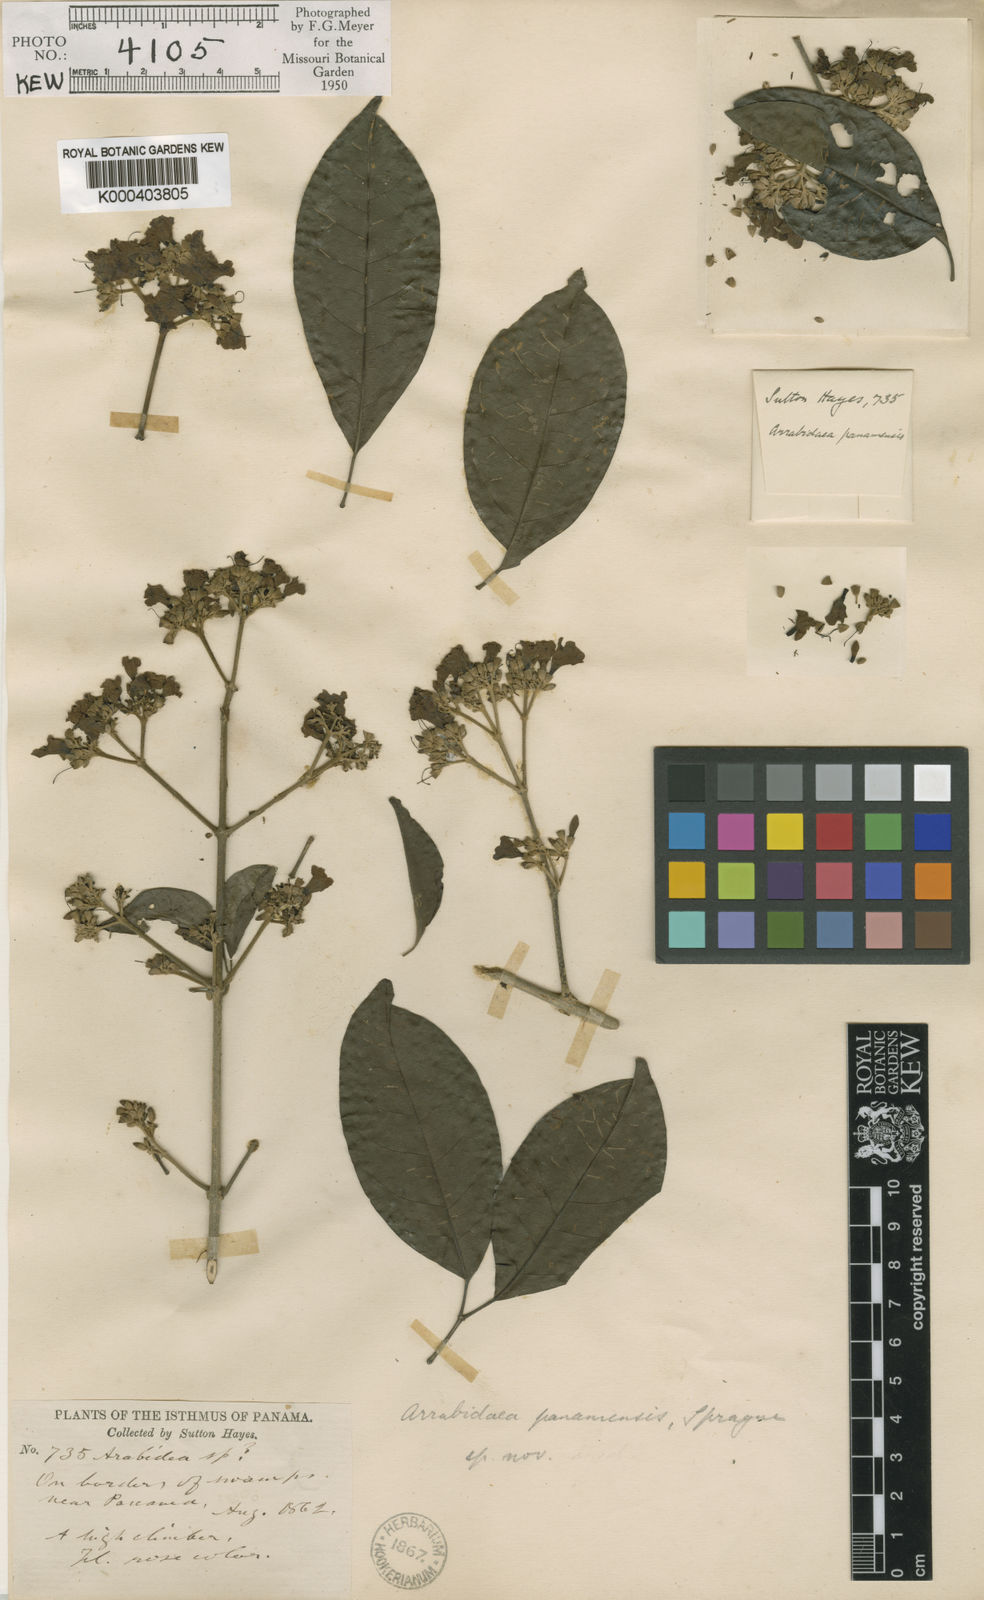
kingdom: Plantae
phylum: Tracheophyta
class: Magnoliopsida
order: Lamiales
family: Bignoniaceae
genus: Fridericia
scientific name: Fridericia florida
